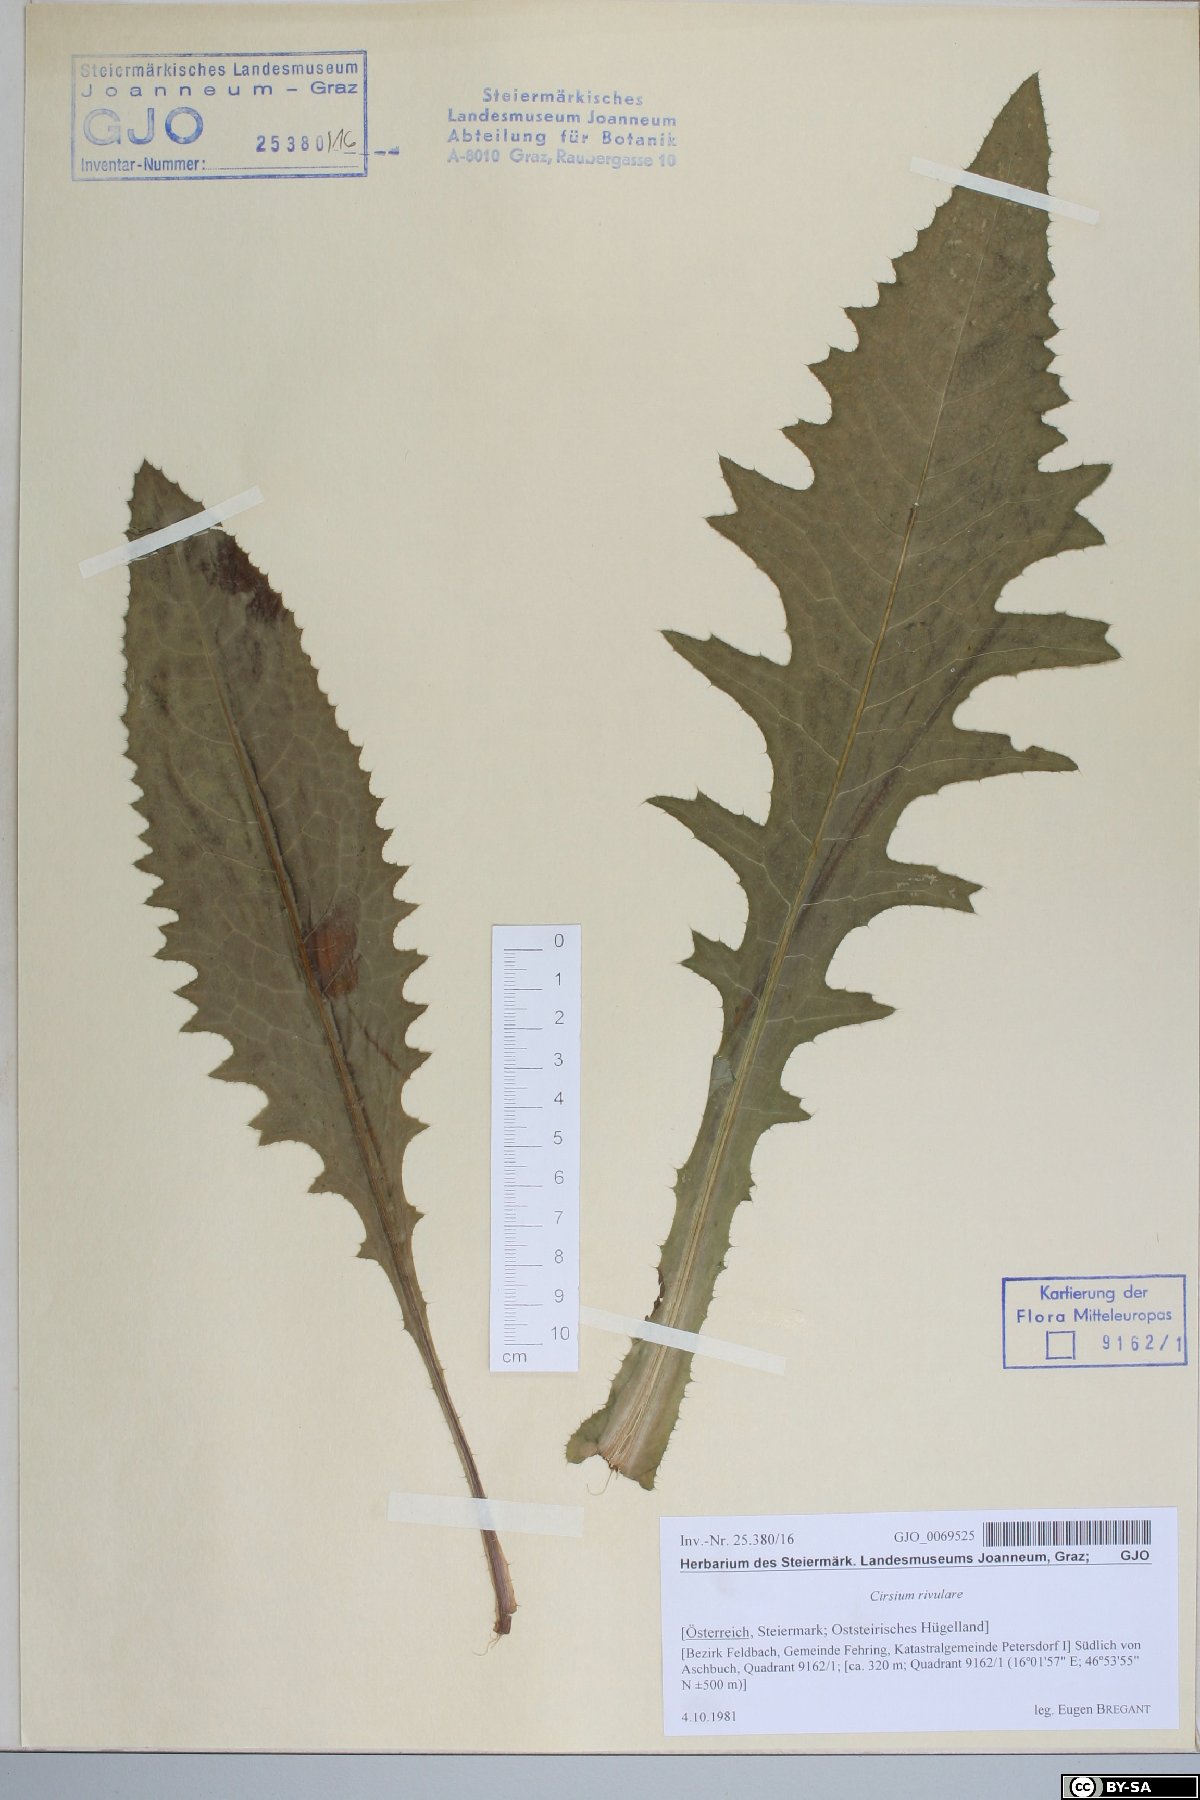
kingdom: Plantae
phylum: Tracheophyta
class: Magnoliopsida
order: Asterales
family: Asteraceae
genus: Cirsium
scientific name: Cirsium rivulare
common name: Brook thistle
